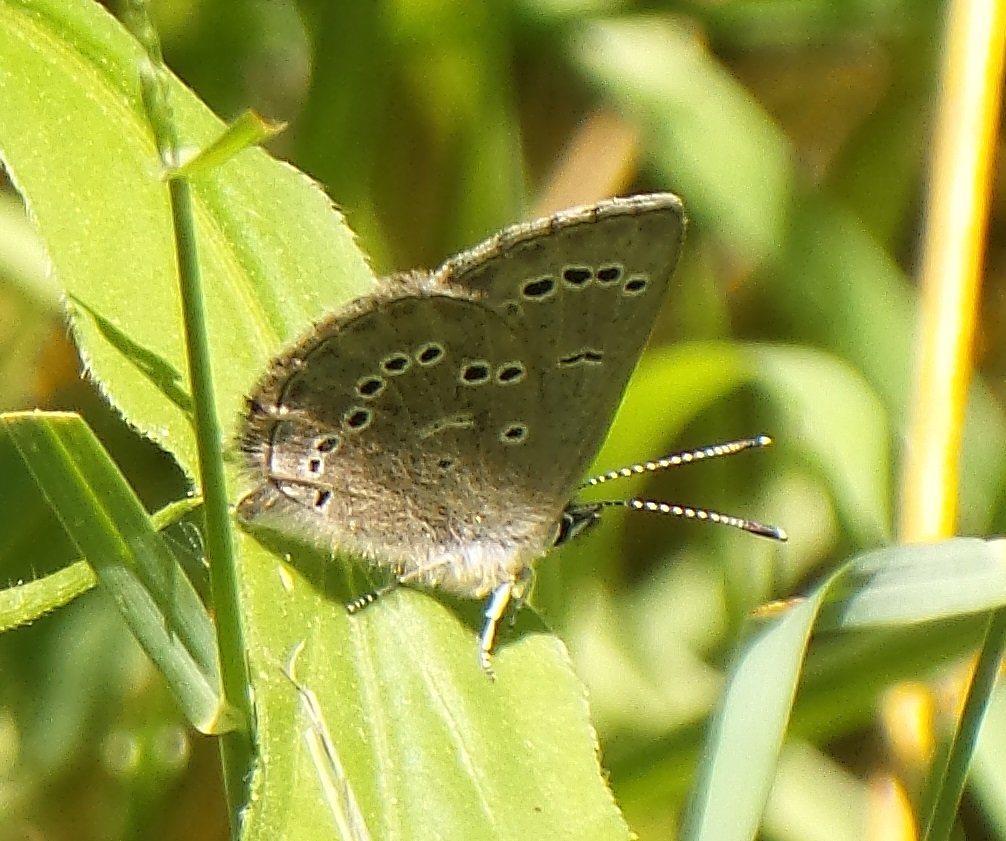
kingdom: Animalia
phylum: Arthropoda
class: Insecta
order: Lepidoptera
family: Lycaenidae
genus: Glaucopsyche
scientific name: Glaucopsyche lygdamus
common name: Silvery Blue
